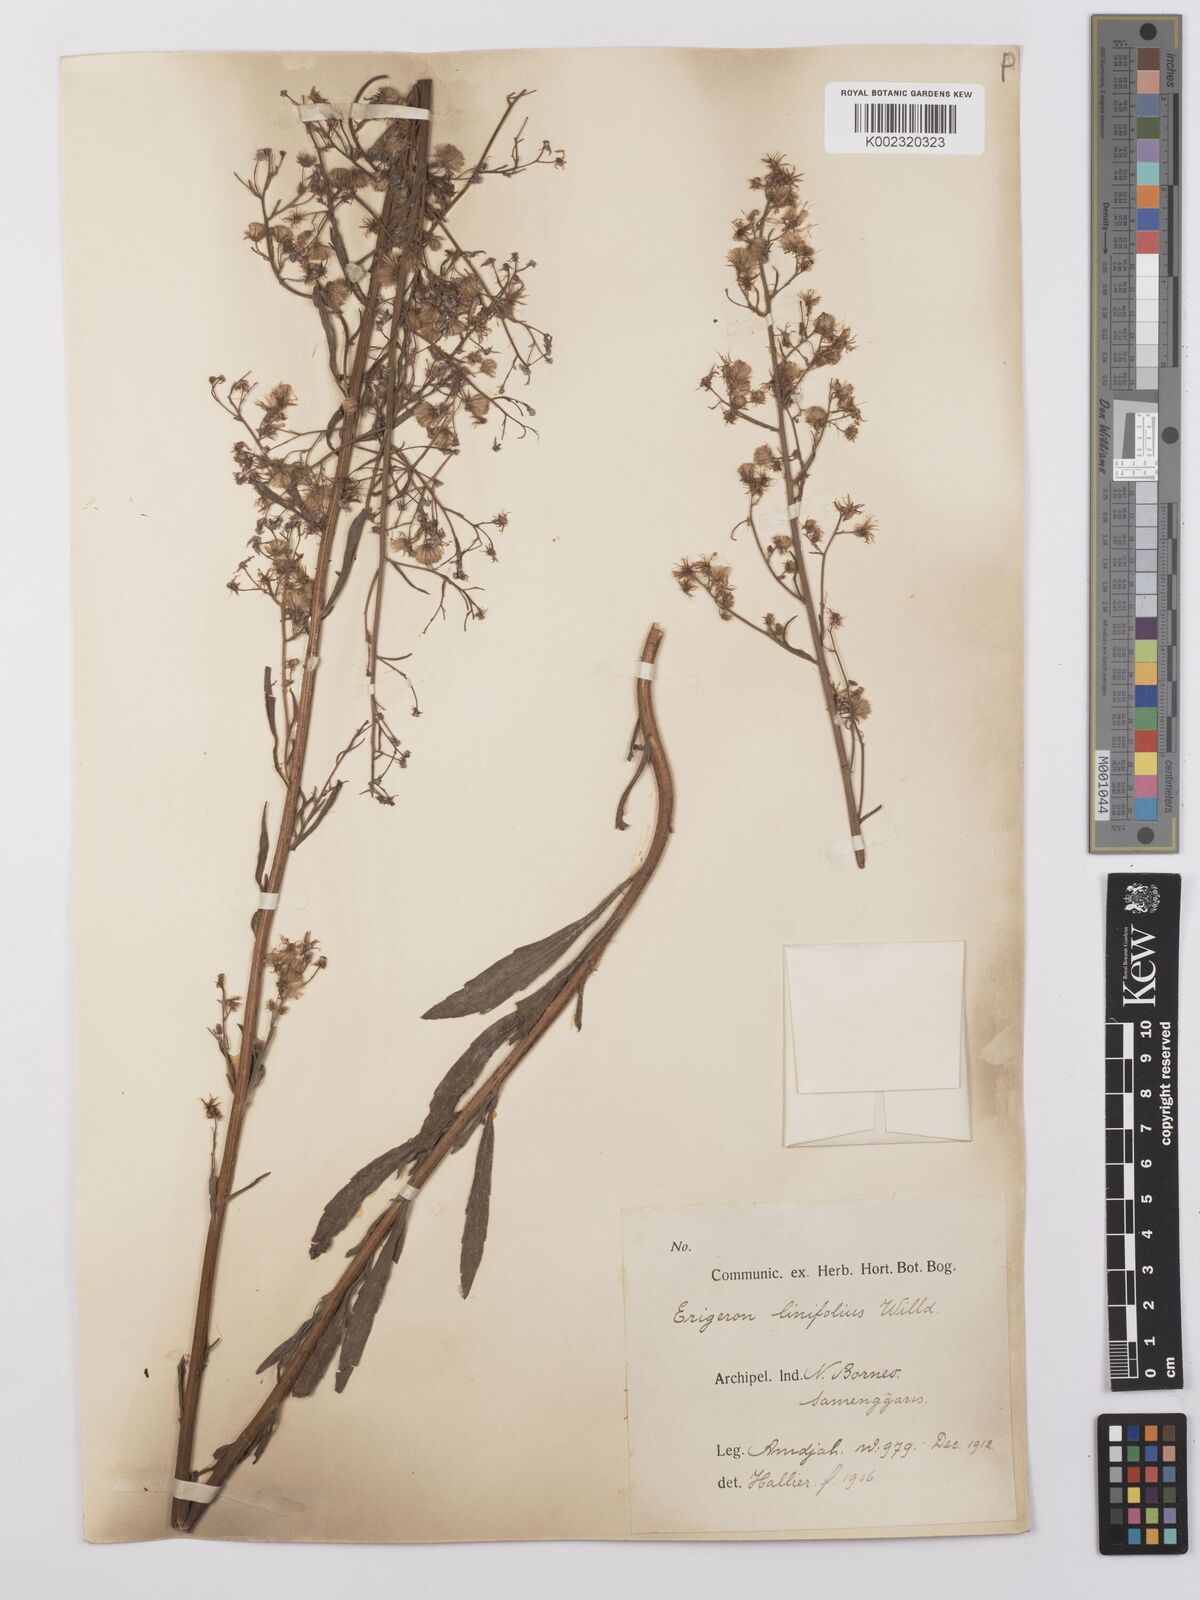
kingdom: Plantae
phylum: Tracheophyta
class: Magnoliopsida
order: Asterales
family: Asteraceae
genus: Erigeron
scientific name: Erigeron sumatrensis
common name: Daisy
